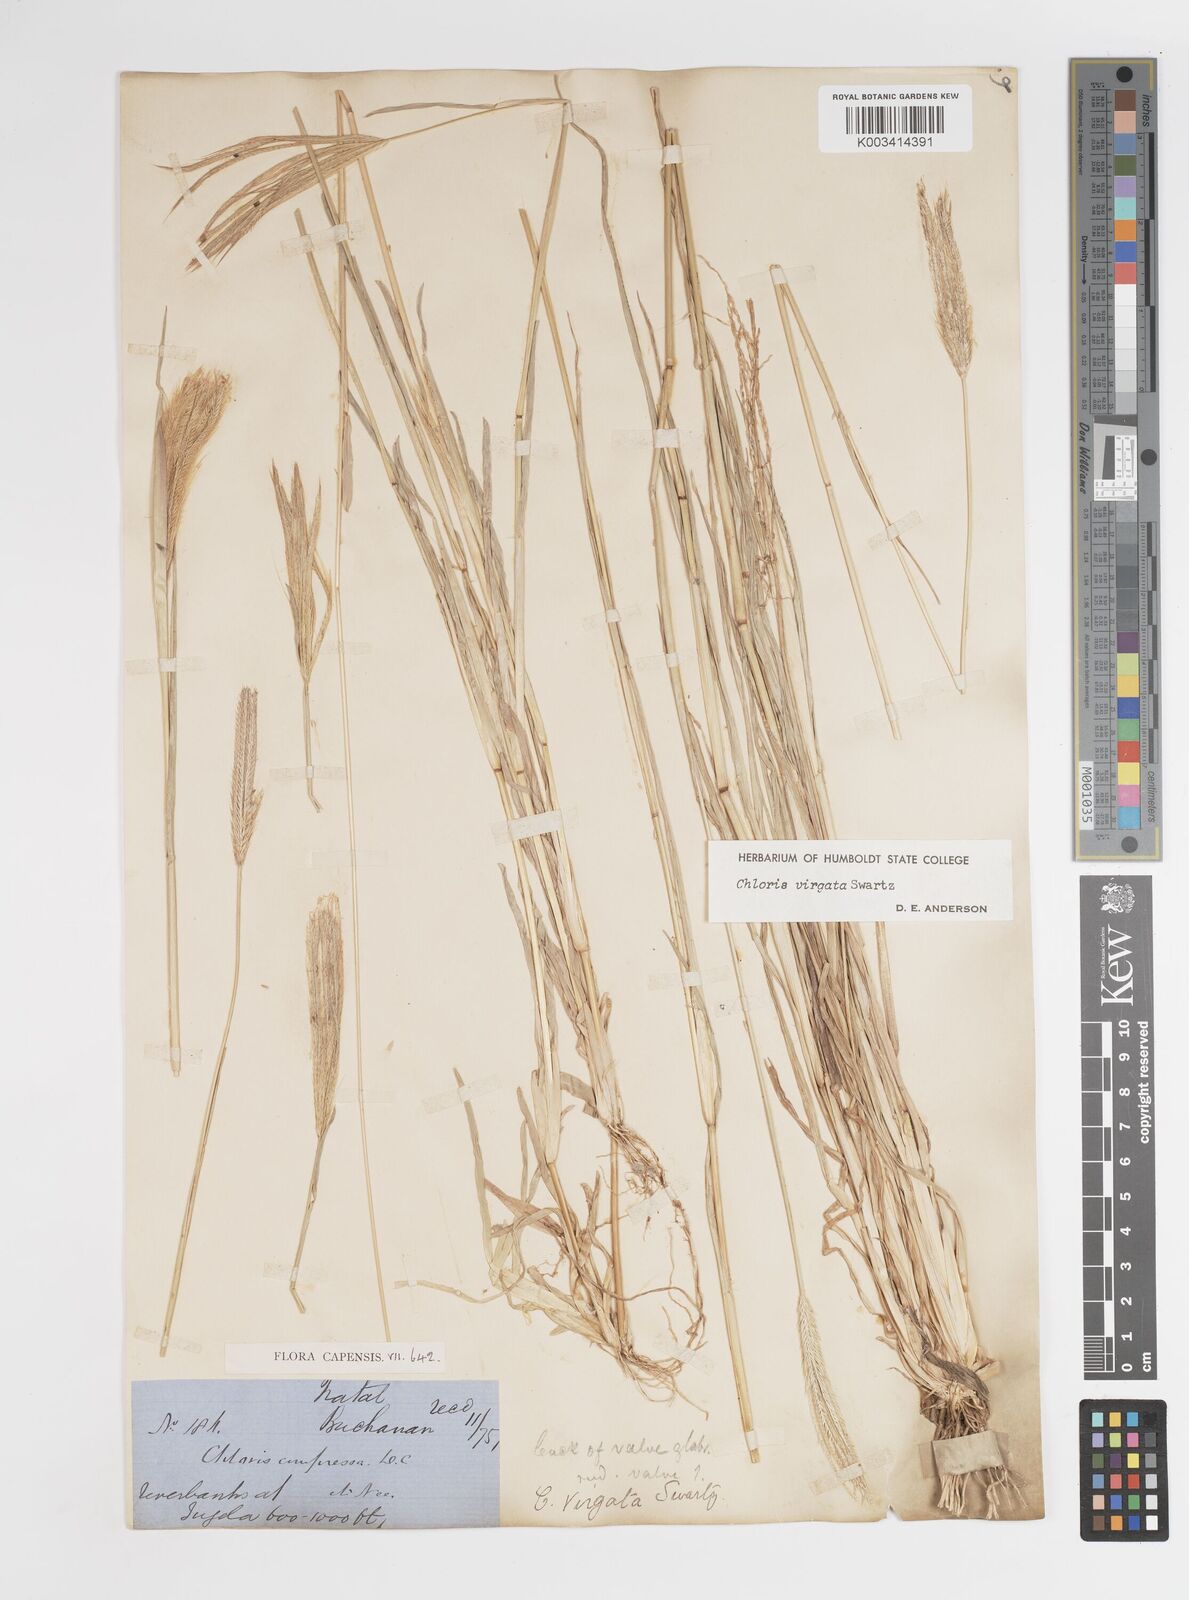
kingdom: Plantae
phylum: Tracheophyta
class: Liliopsida
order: Poales
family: Poaceae
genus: Chloris
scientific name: Chloris virgata
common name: Feathery rhodes-grass
